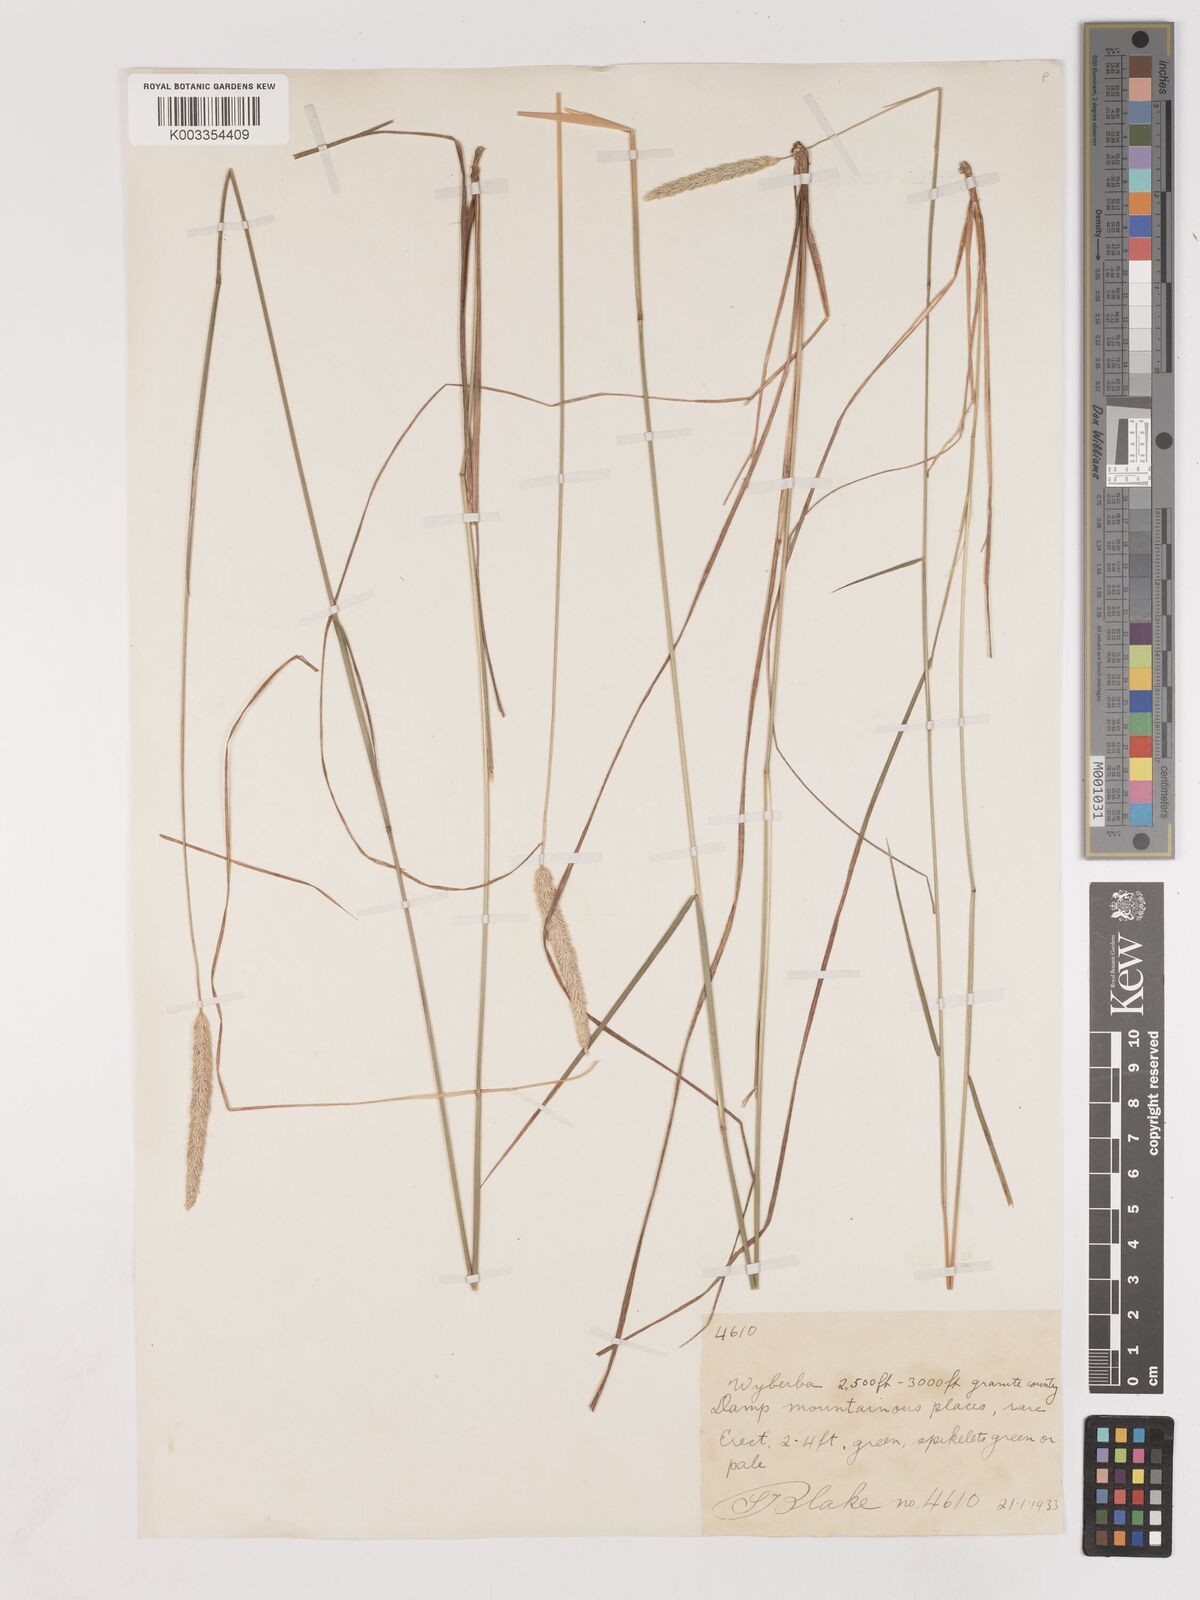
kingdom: Plantae
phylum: Tracheophyta
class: Liliopsida
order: Poales
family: Poaceae
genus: Calamagrostis
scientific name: Calamagrostis
